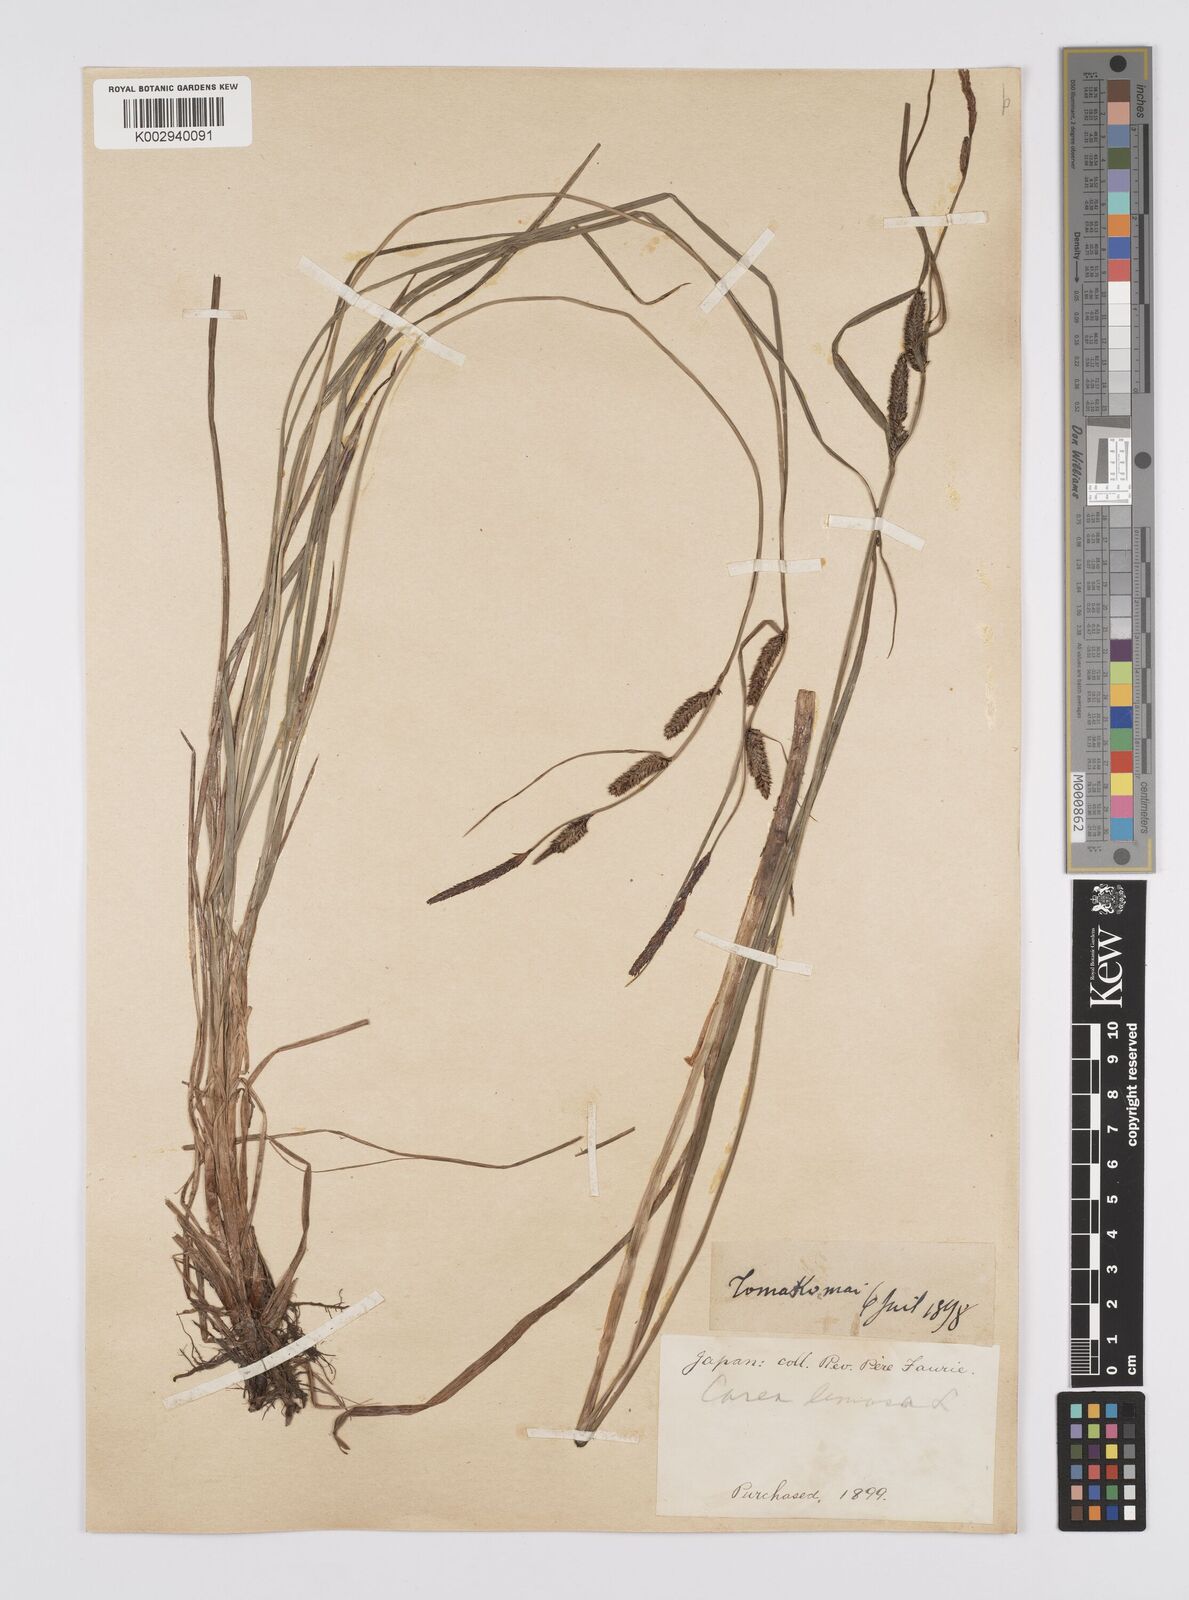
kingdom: Plantae
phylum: Tracheophyta
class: Liliopsida
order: Poales
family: Cyperaceae
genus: Carex
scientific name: Carex thunbergii
